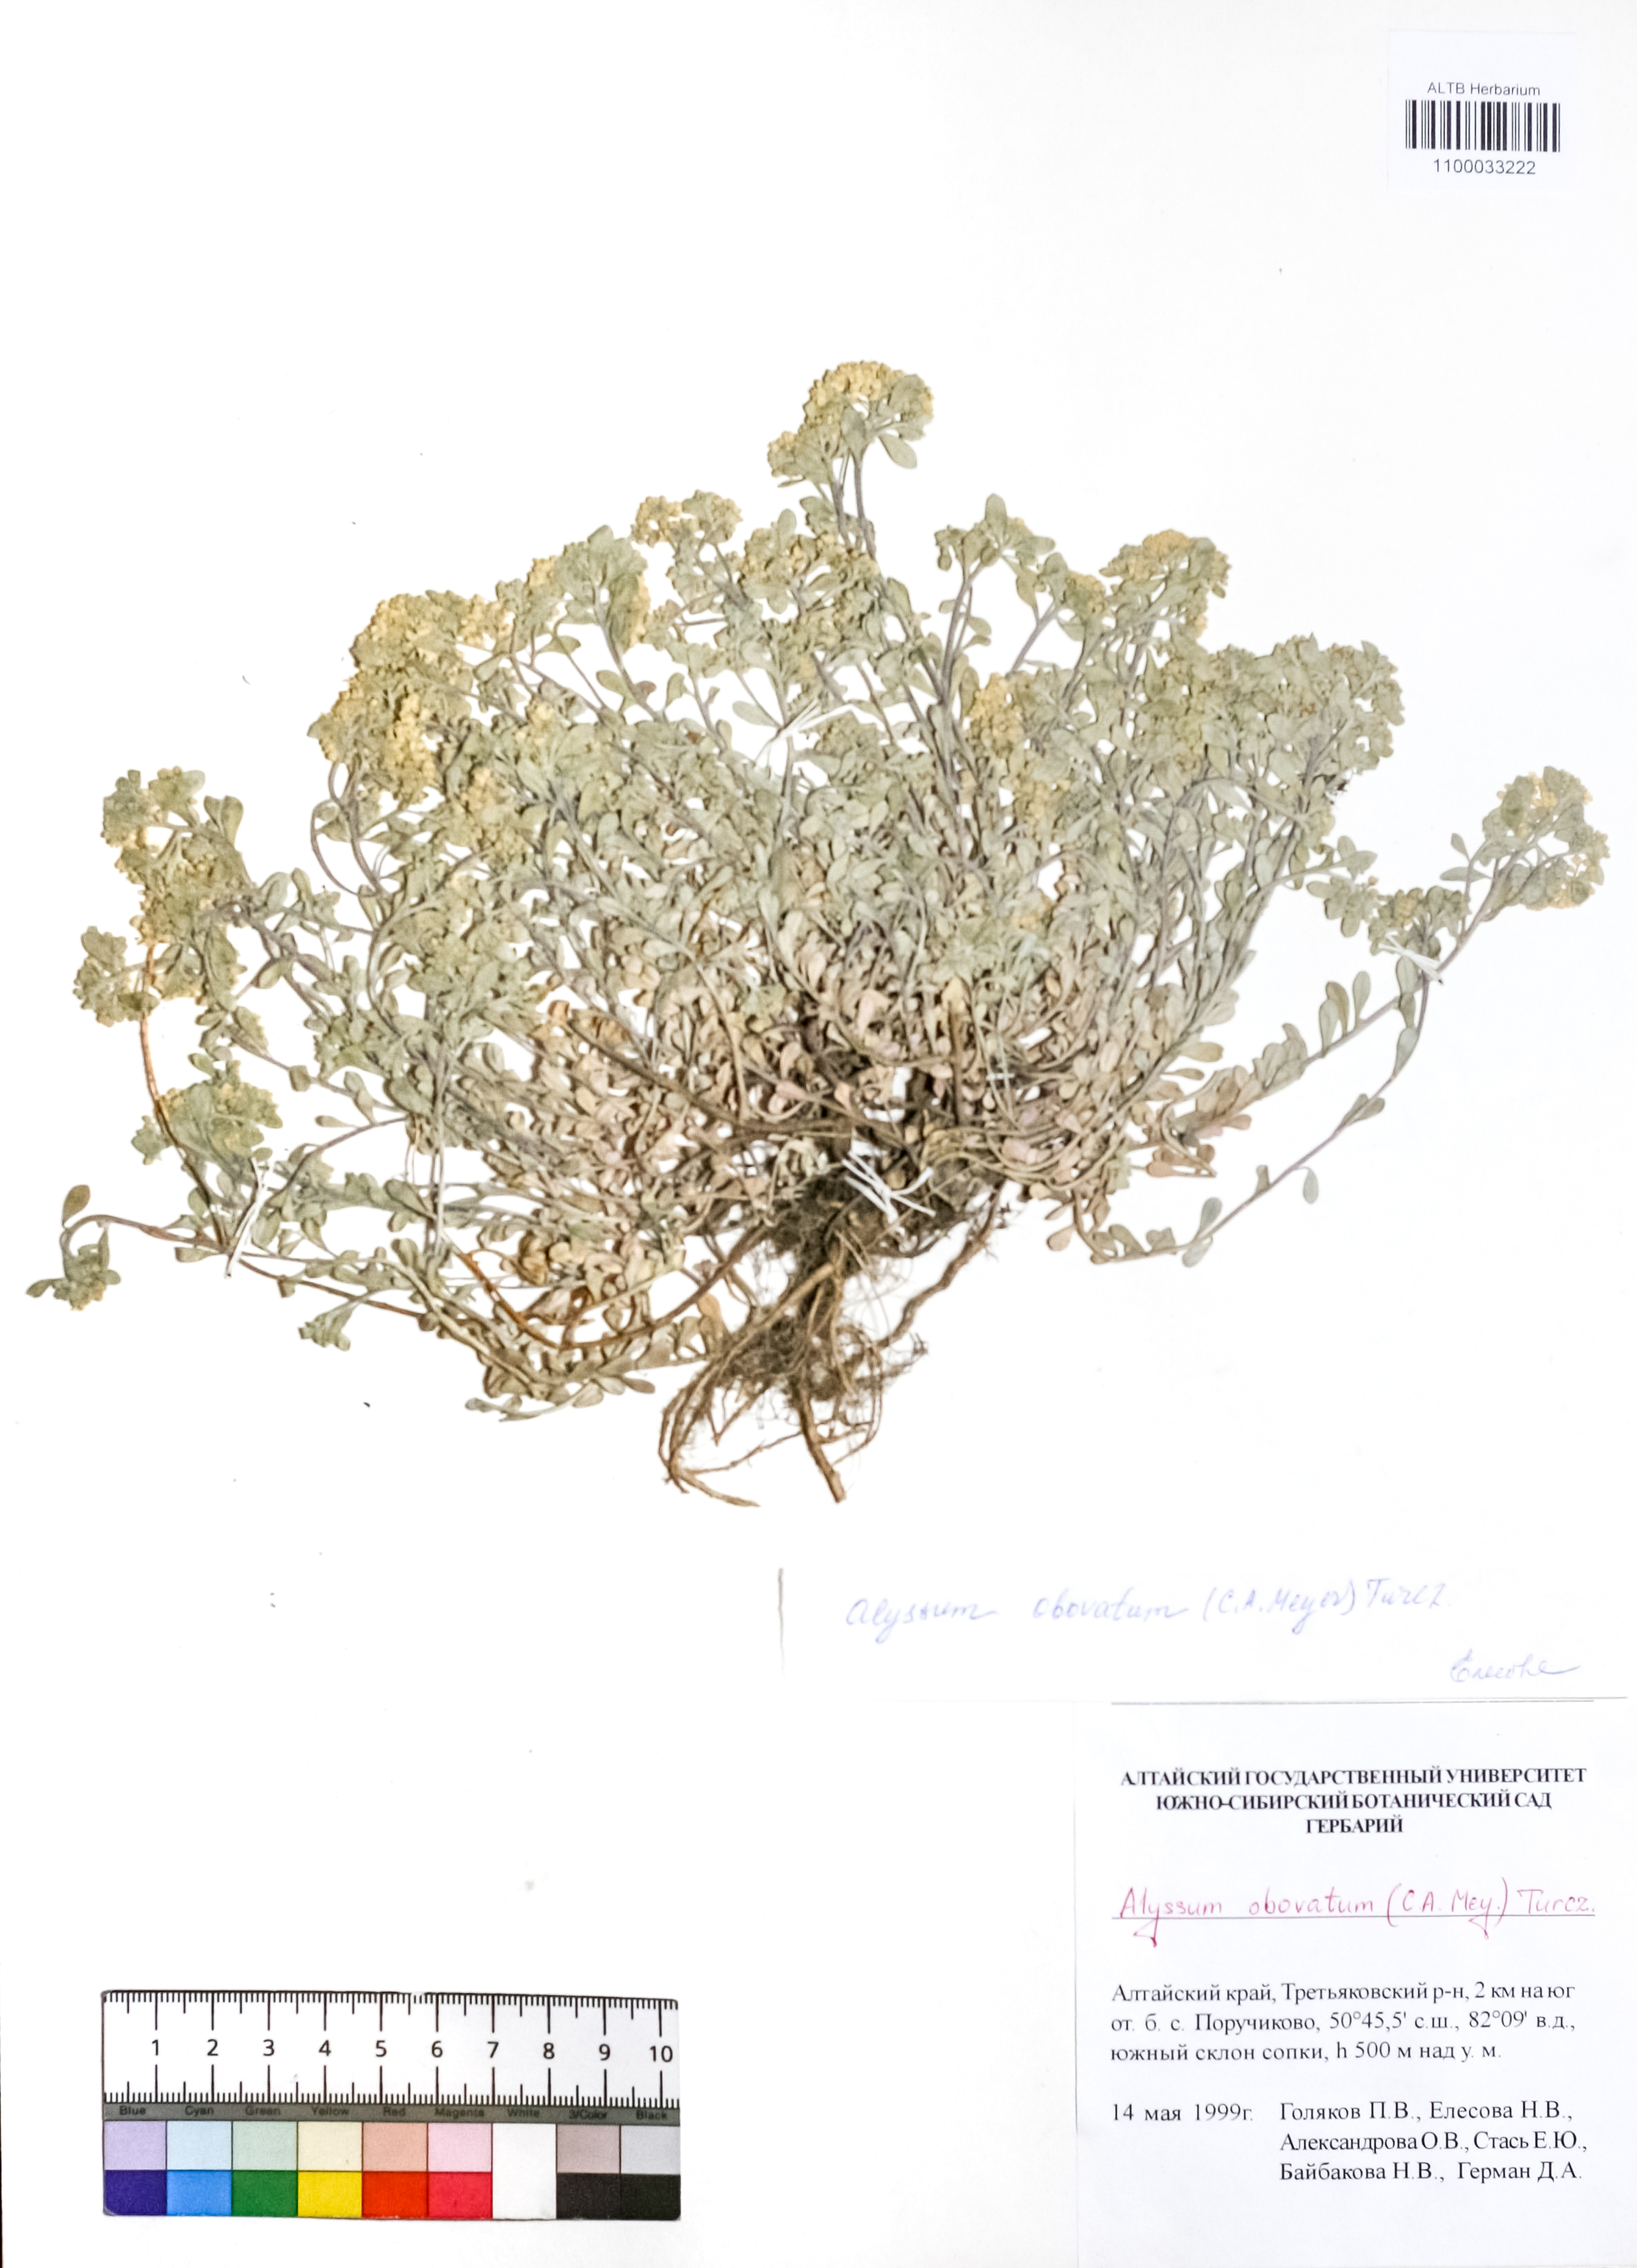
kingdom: Plantae
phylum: Tracheophyta
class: Magnoliopsida
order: Brassicales
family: Brassicaceae
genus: Odontarrhena
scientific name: Odontarrhena obovata
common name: American alyssum
